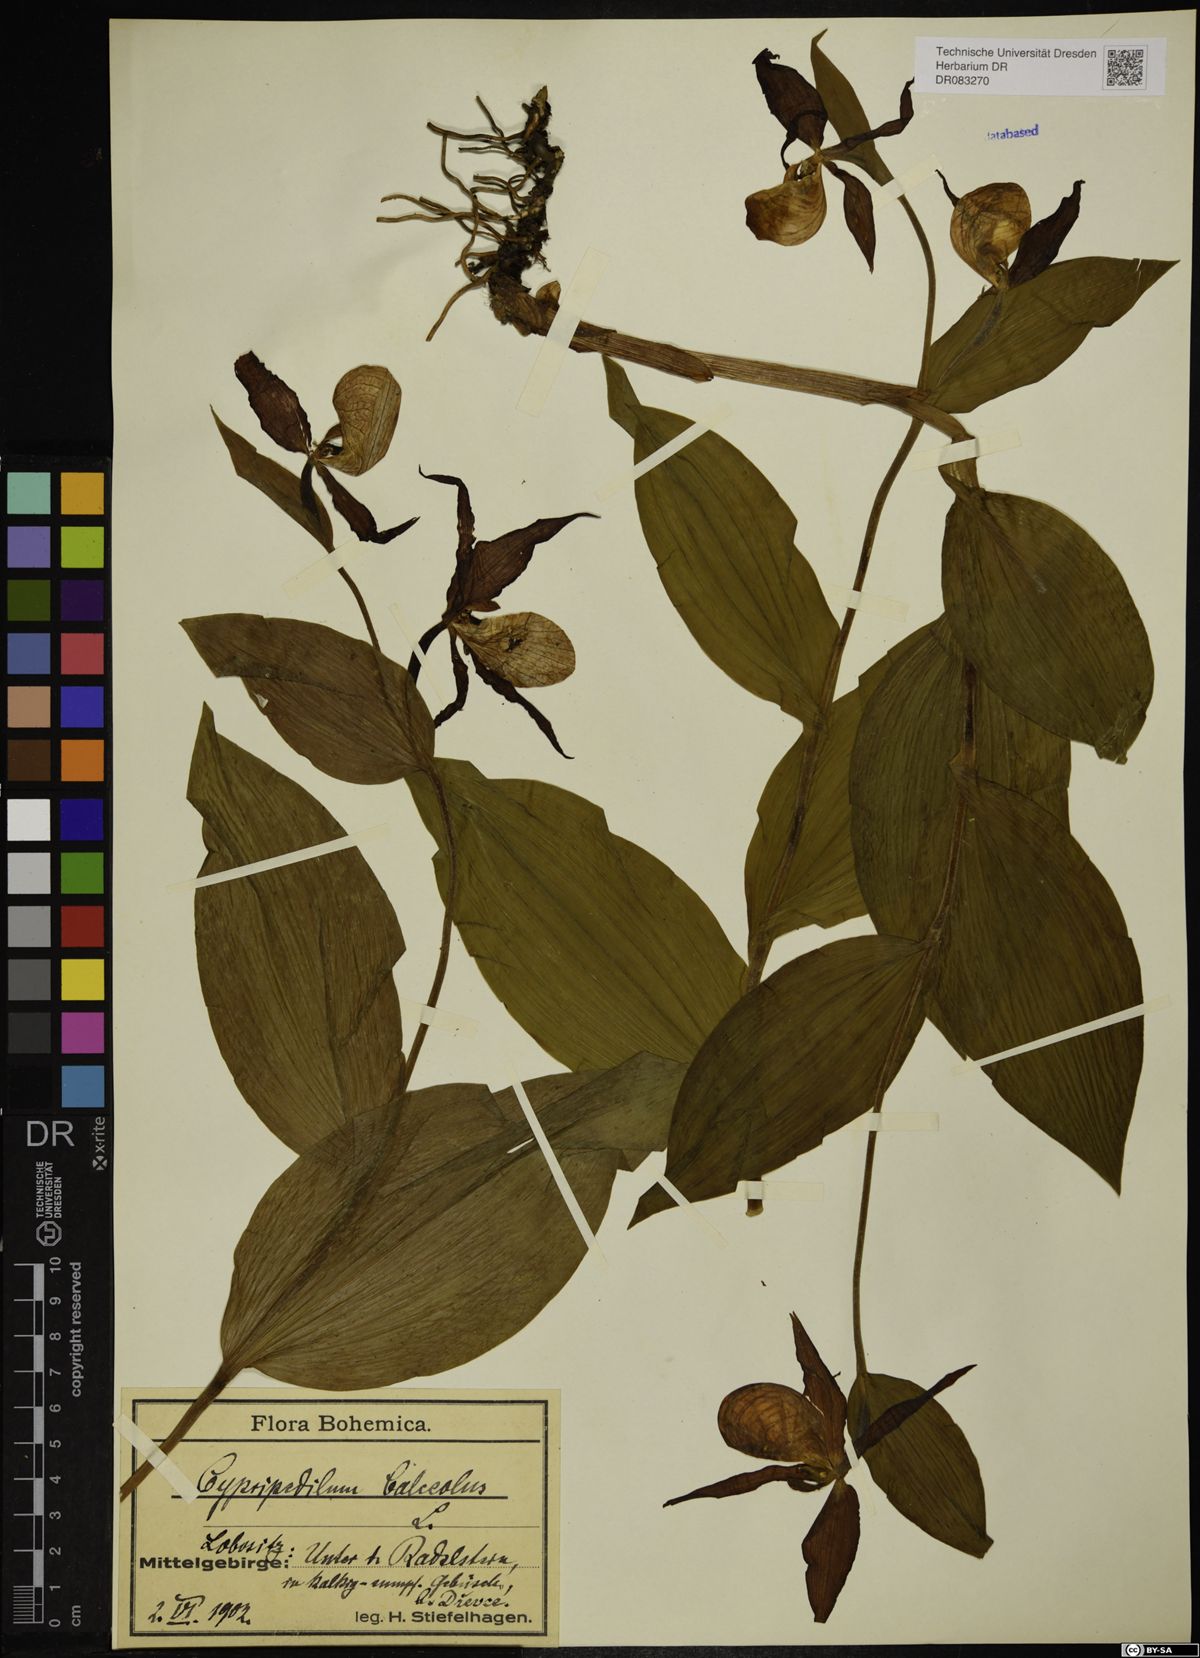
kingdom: Plantae
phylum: Tracheophyta
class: Liliopsida
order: Asparagales
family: Orchidaceae
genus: Cypripedium
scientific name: Cypripedium calceolus
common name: Lady's-slipper
